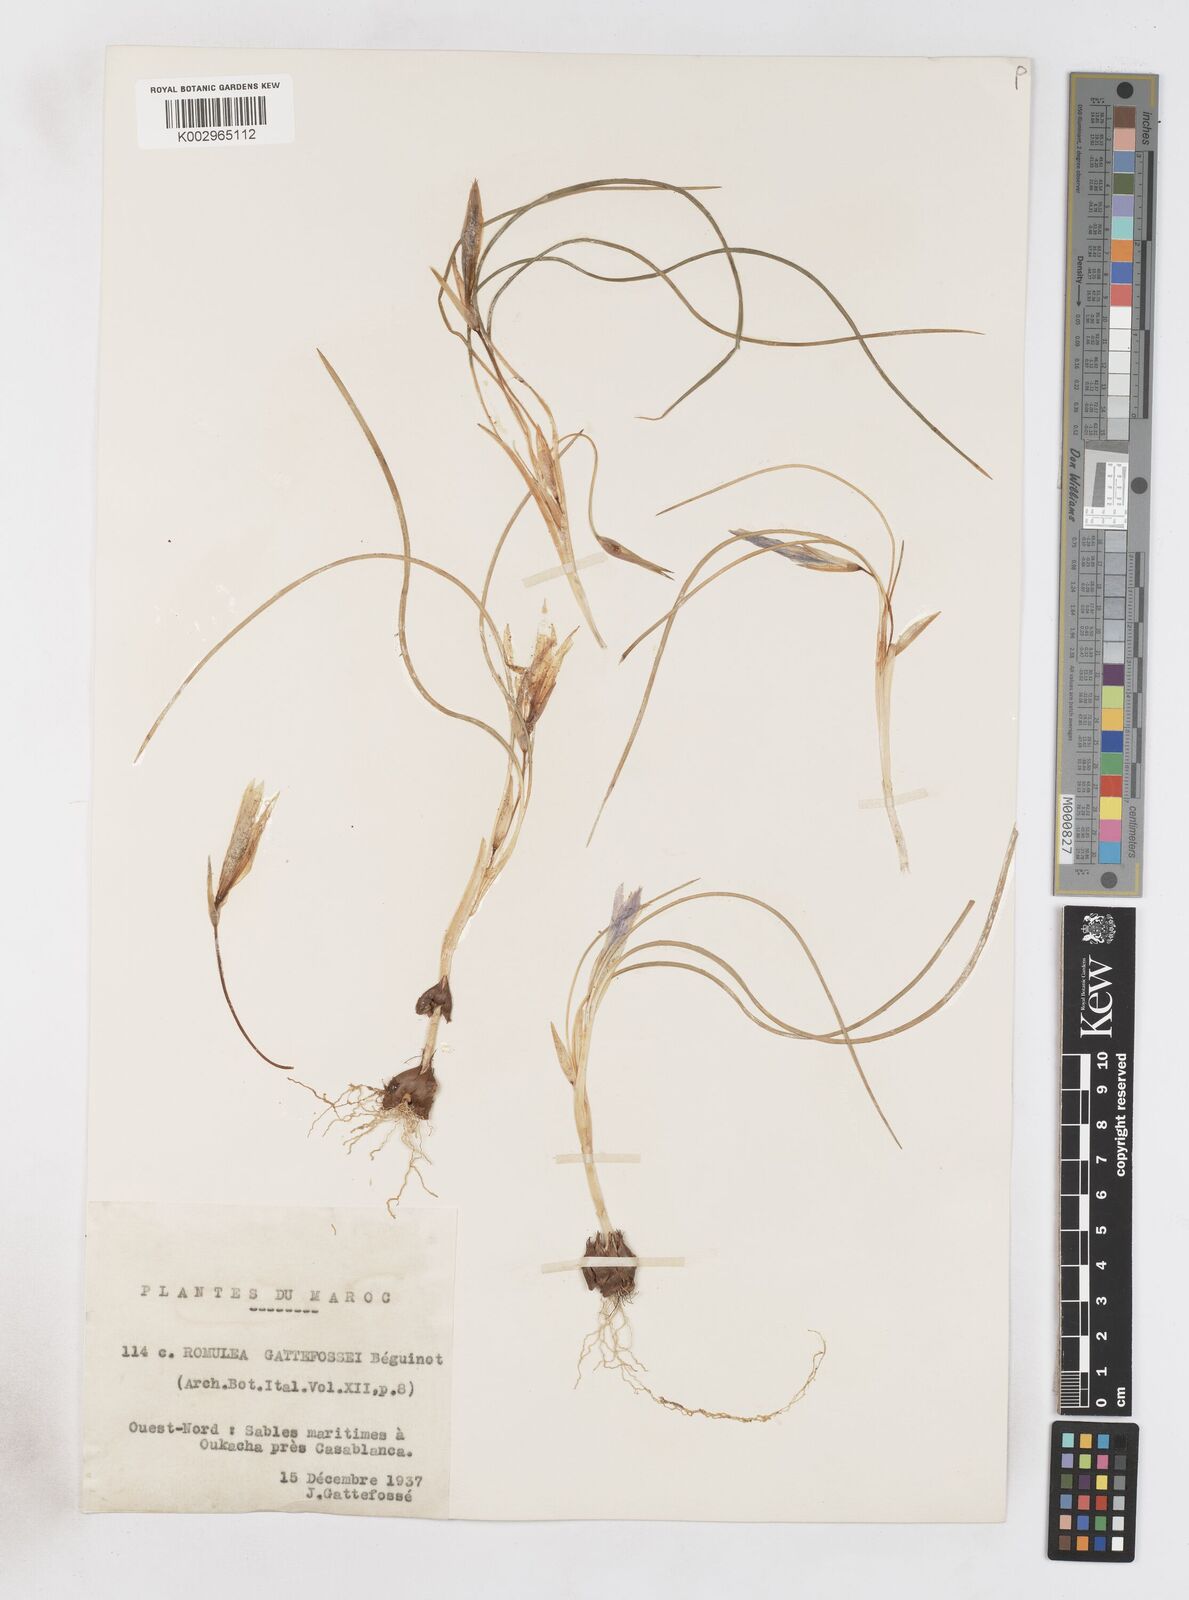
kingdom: Plantae
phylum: Tracheophyta
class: Liliopsida
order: Asparagales
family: Iridaceae
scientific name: Iridaceae
